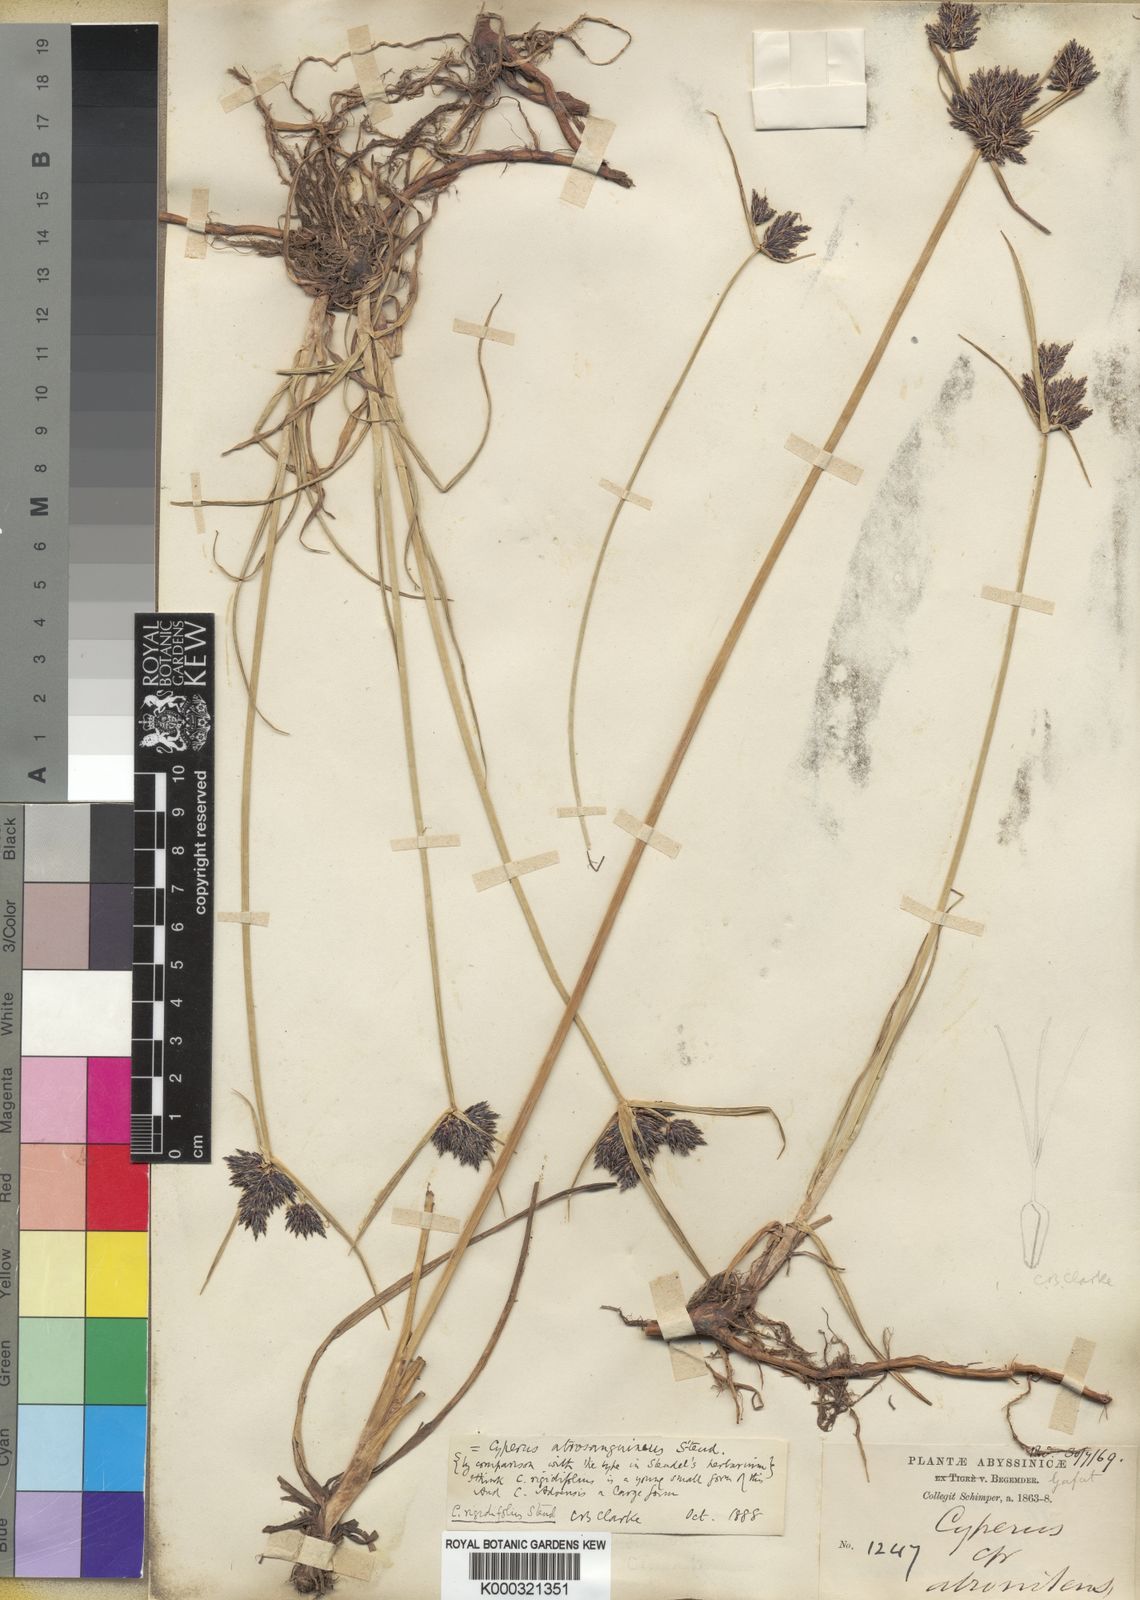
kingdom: Plantae
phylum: Tracheophyta
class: Liliopsida
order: Poales
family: Cyperaceae
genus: Cyperus
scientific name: Cyperus rigidifolius
